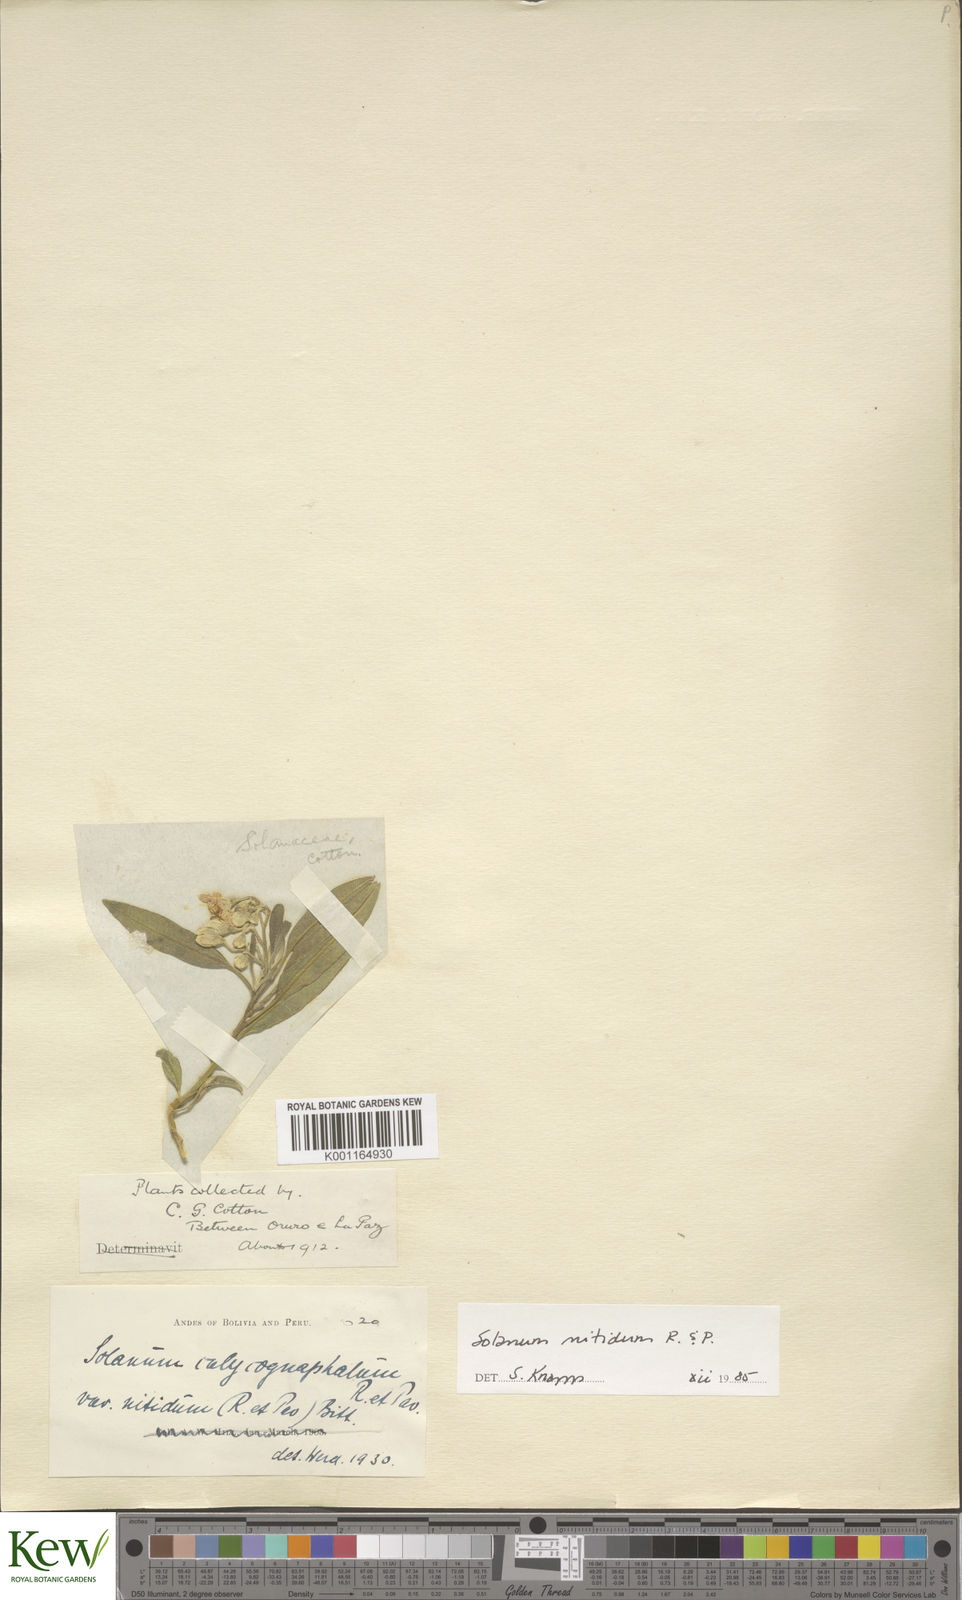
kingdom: Plantae
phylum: Tracheophyta
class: Magnoliopsida
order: Solanales
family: Solanaceae
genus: Solanum
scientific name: Solanum nitidum
